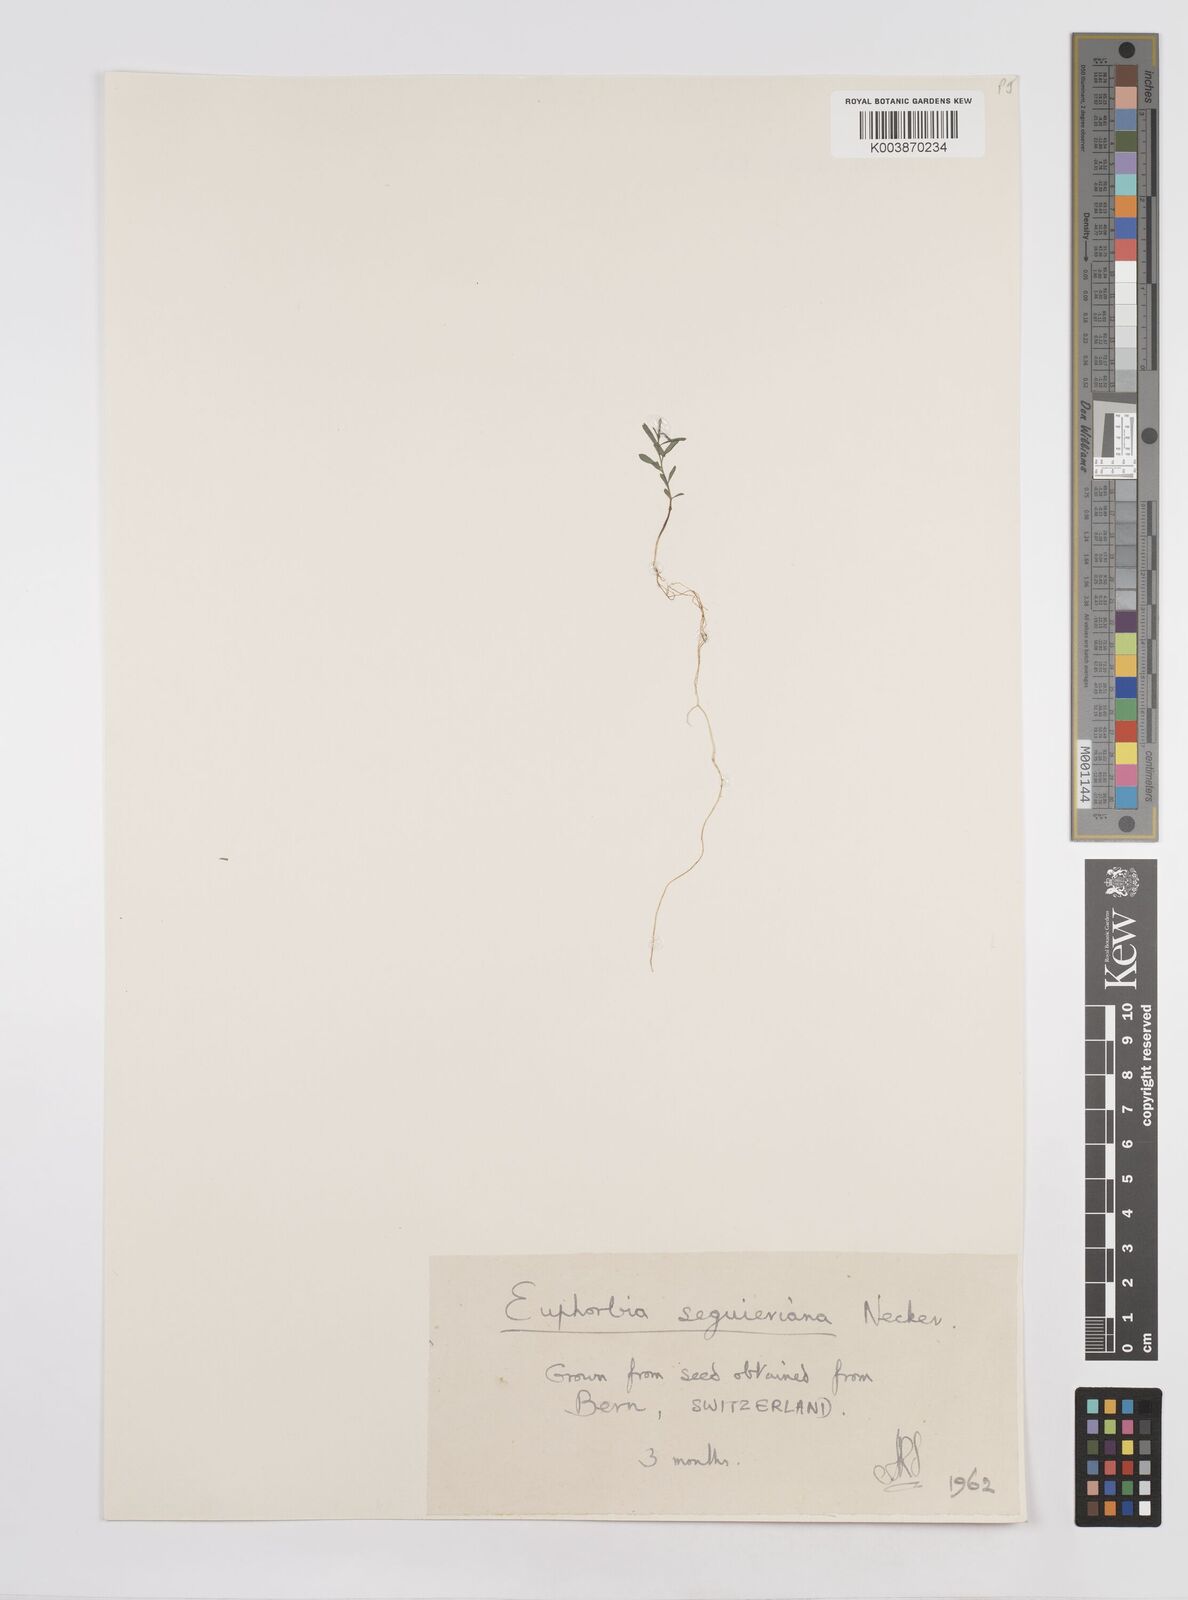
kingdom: Plantae
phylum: Tracheophyta
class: Magnoliopsida
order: Malpighiales
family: Euphorbiaceae
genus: Euphorbia
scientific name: Euphorbia seguieriana
